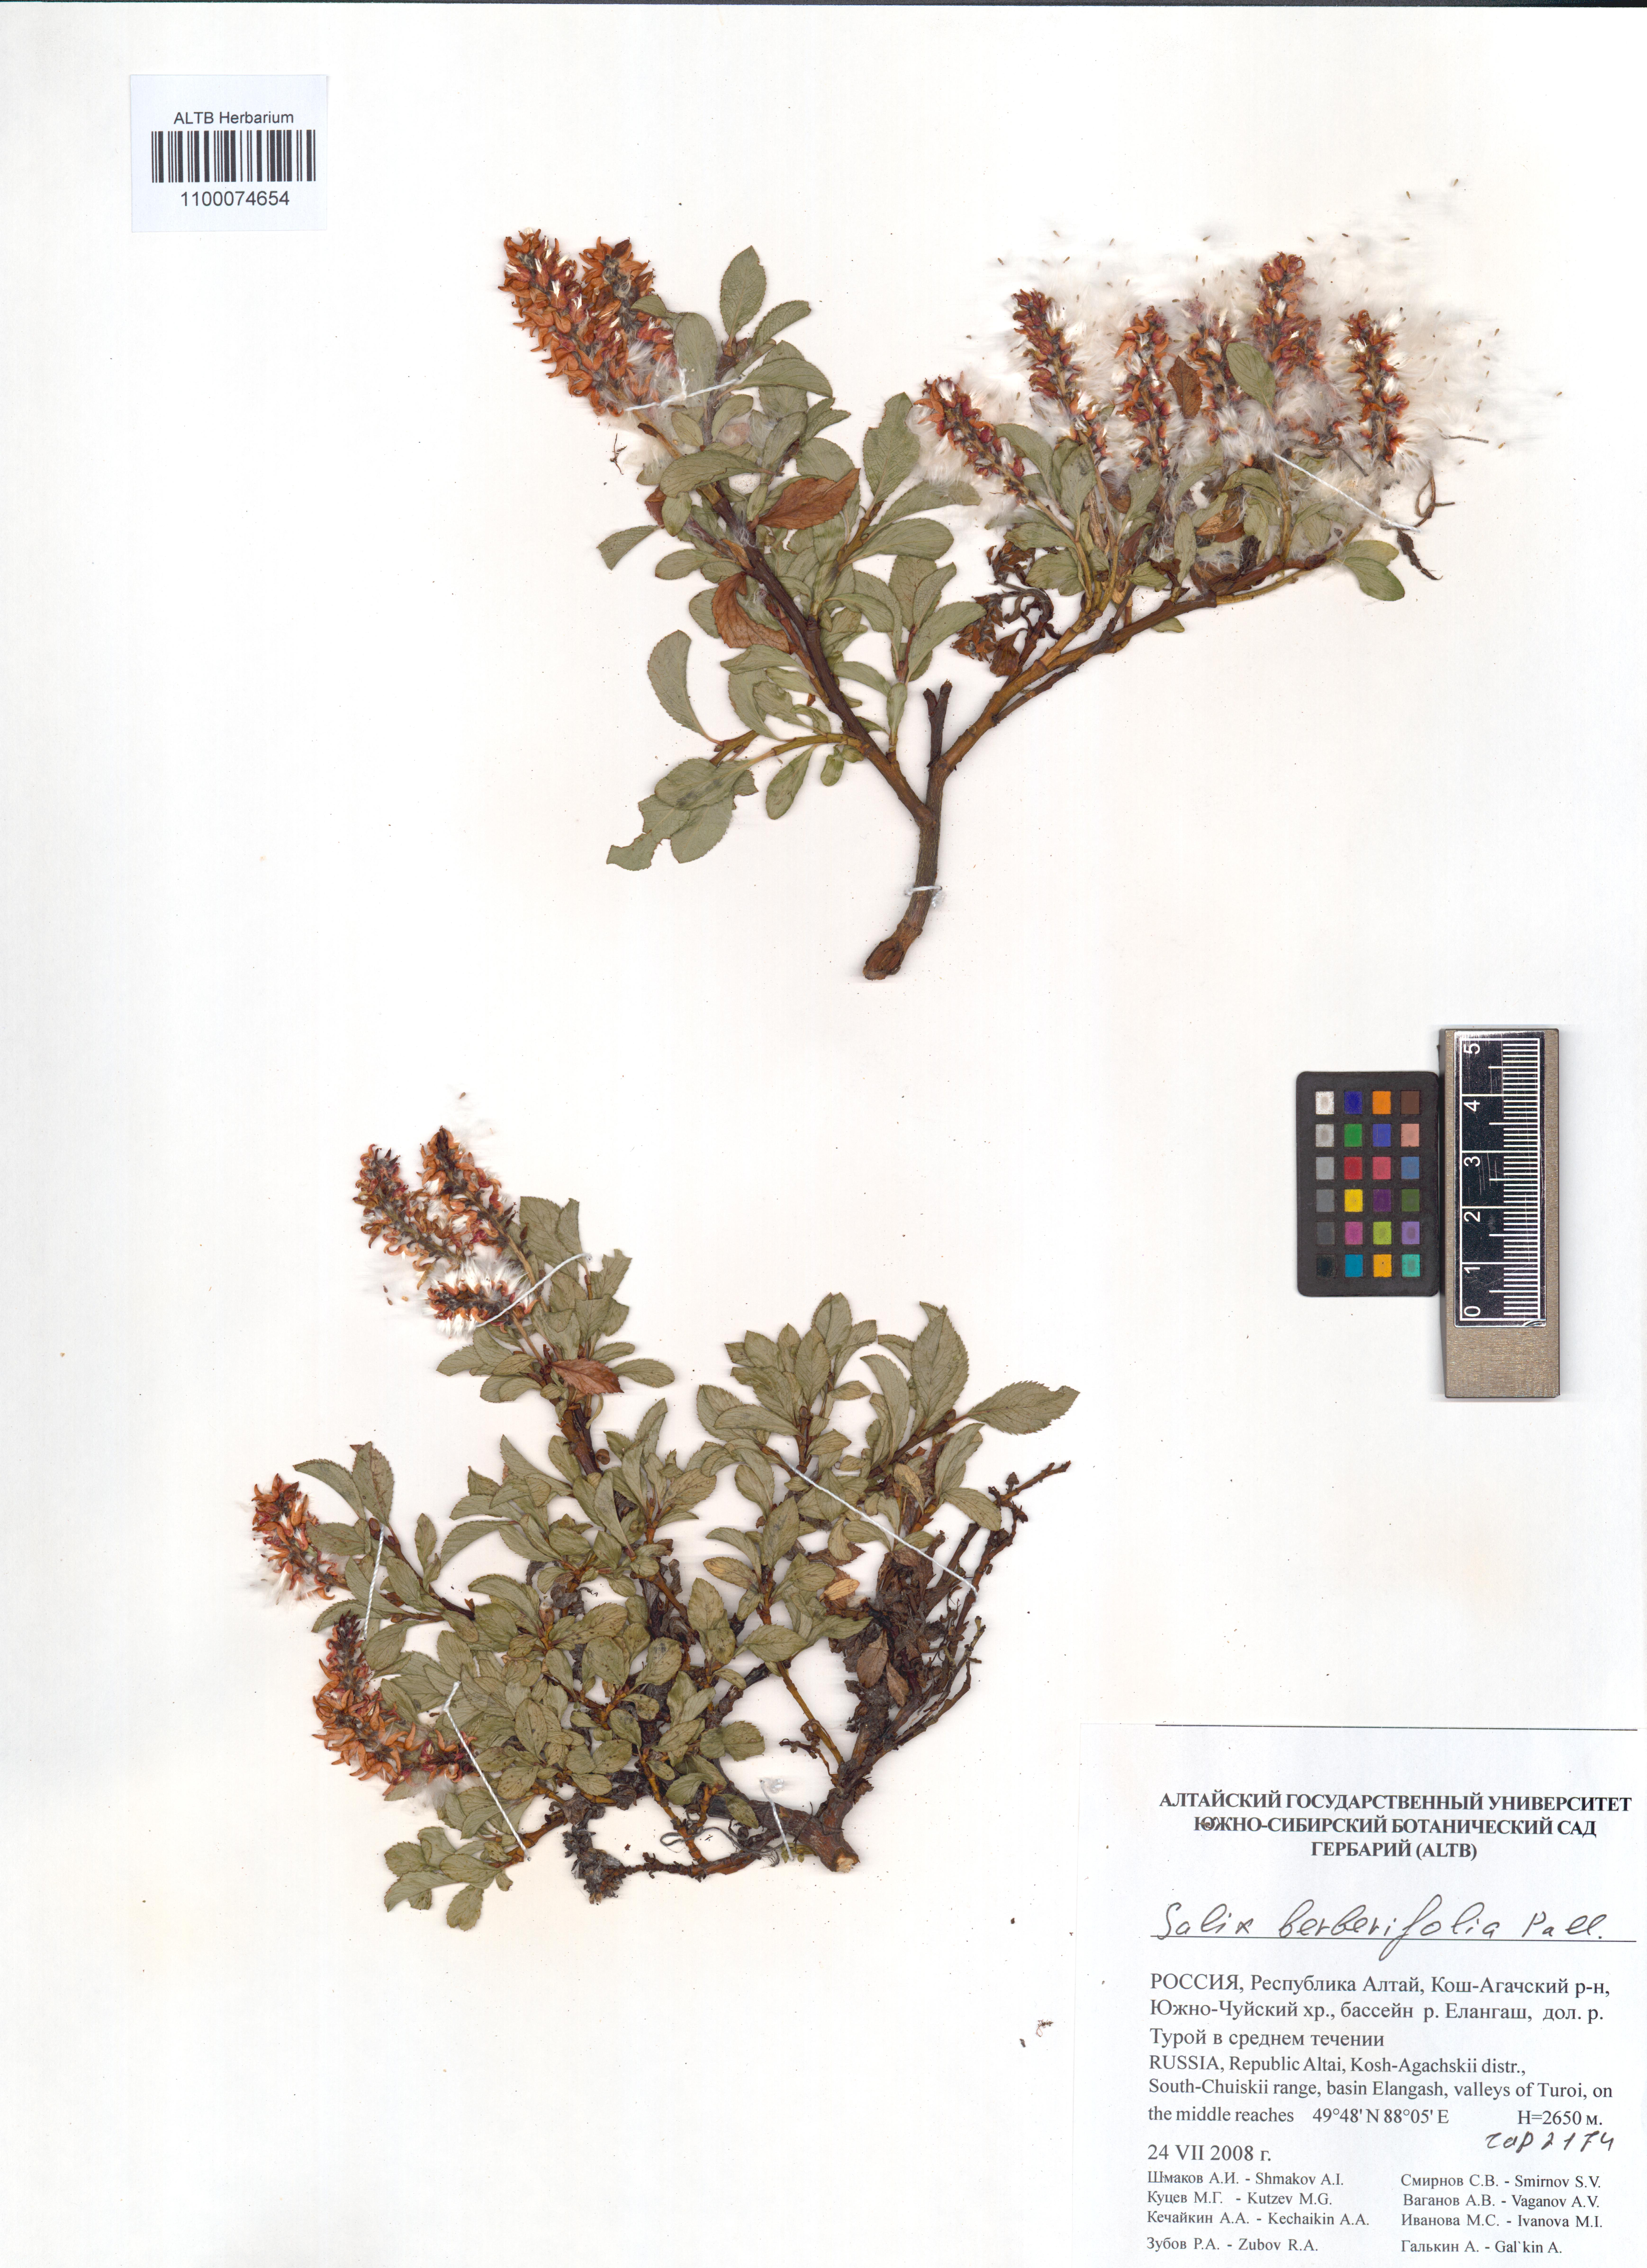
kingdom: Plantae
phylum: Tracheophyta
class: Magnoliopsida
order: Malpighiales
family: Salicaceae
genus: Salix
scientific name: Salix berberifolia
